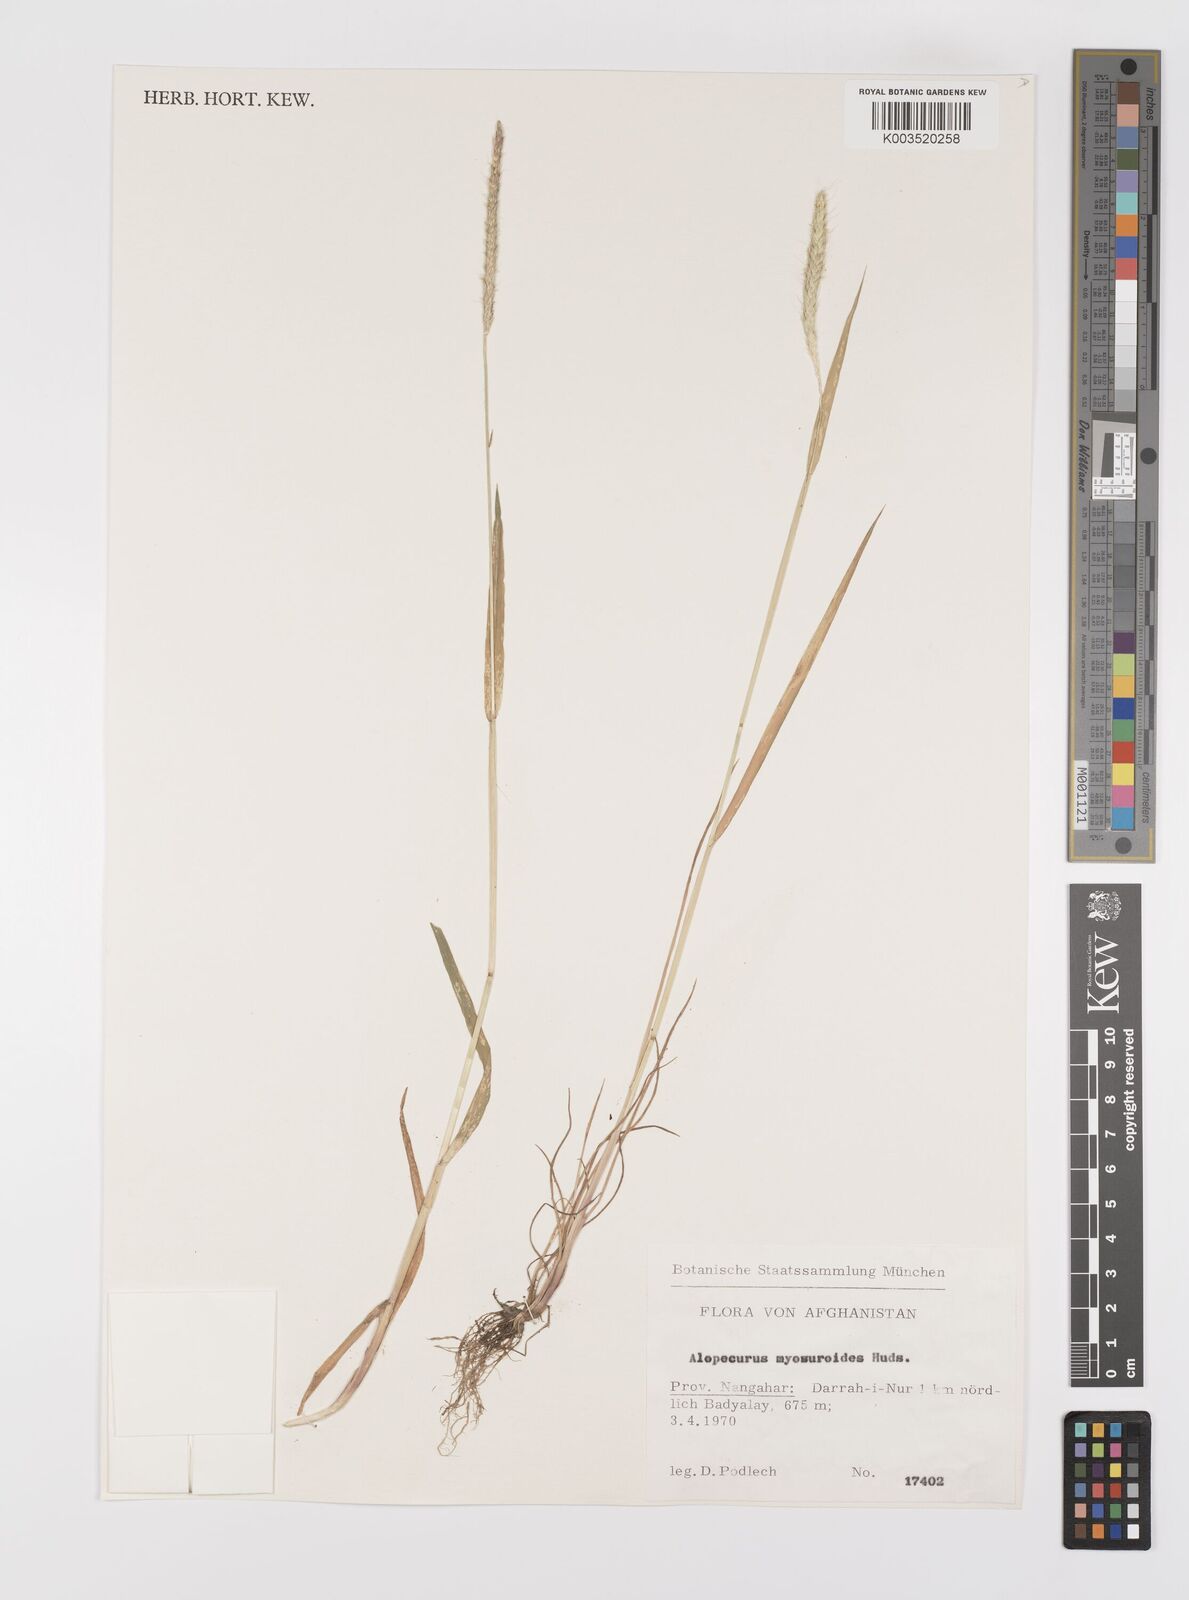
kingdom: Plantae
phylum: Tracheophyta
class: Liliopsida
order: Poales
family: Poaceae
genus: Alopecurus
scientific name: Alopecurus myosuroides
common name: Black-grass
